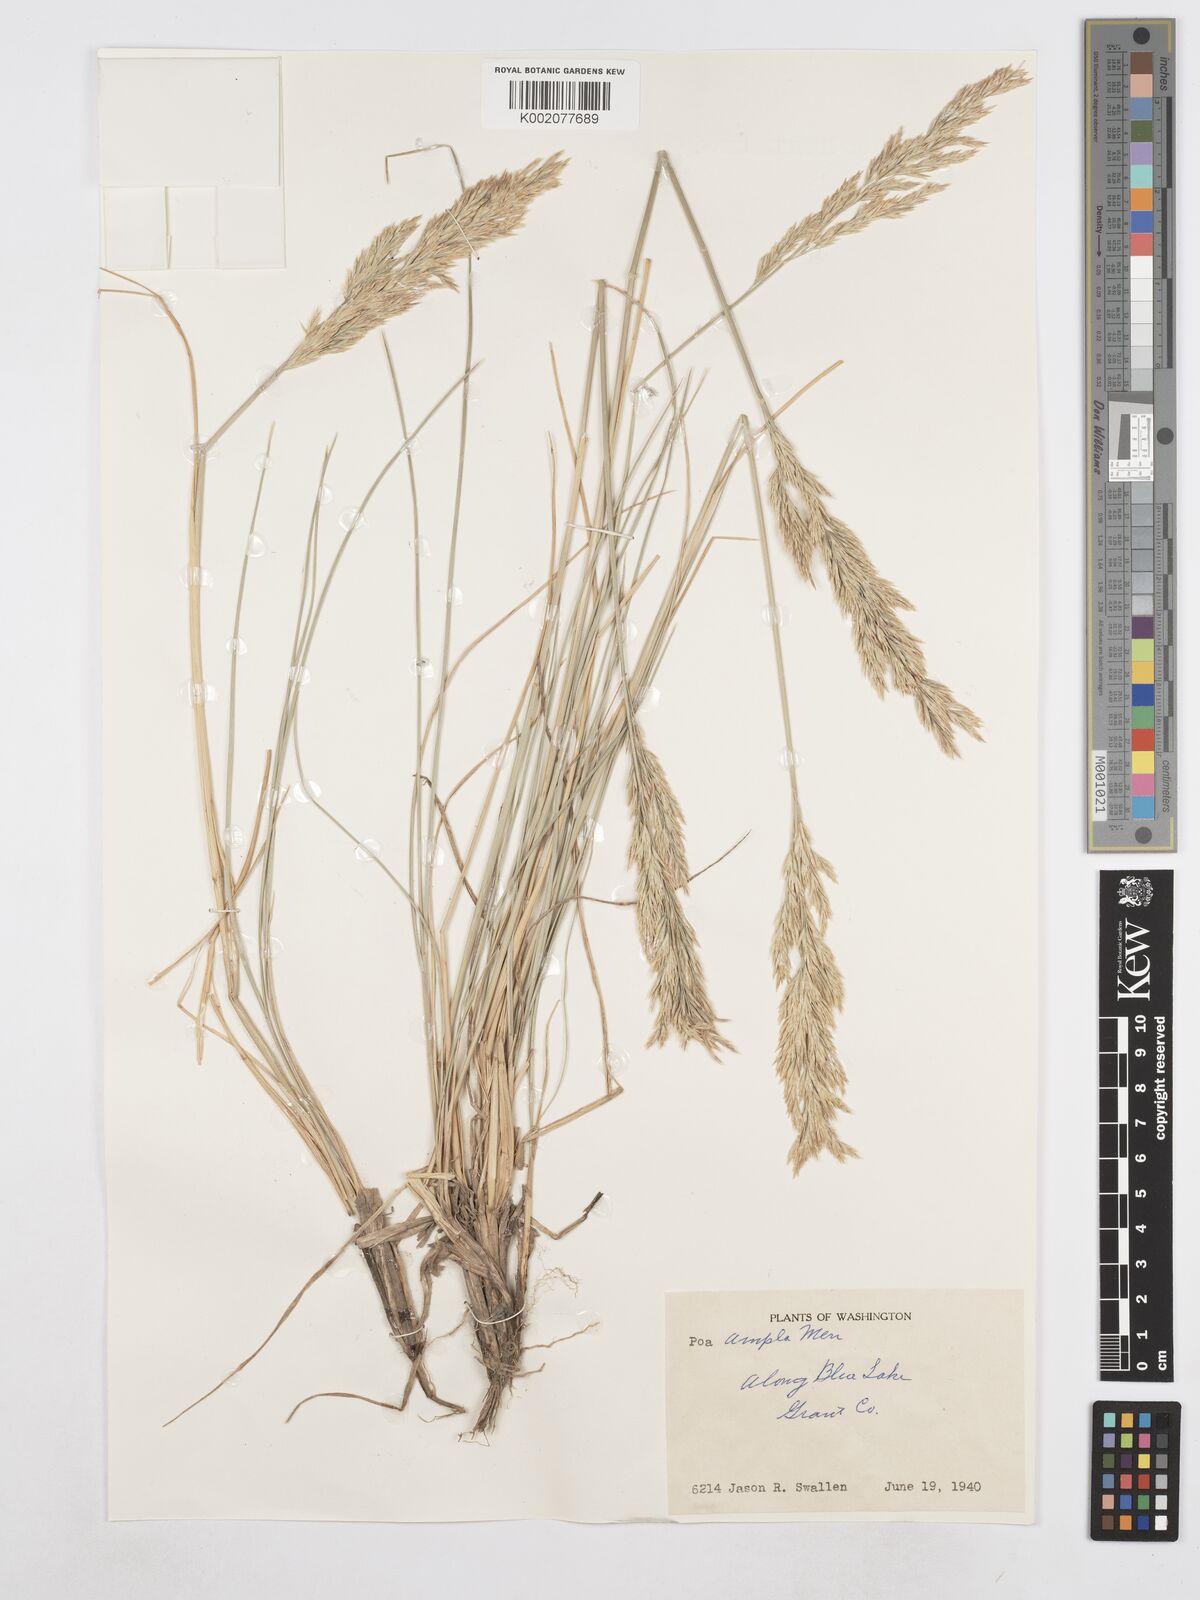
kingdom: Plantae
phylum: Tracheophyta
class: Liliopsida
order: Poales
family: Poaceae
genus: Poa
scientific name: Poa secunda
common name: Sandberg bluegrass
